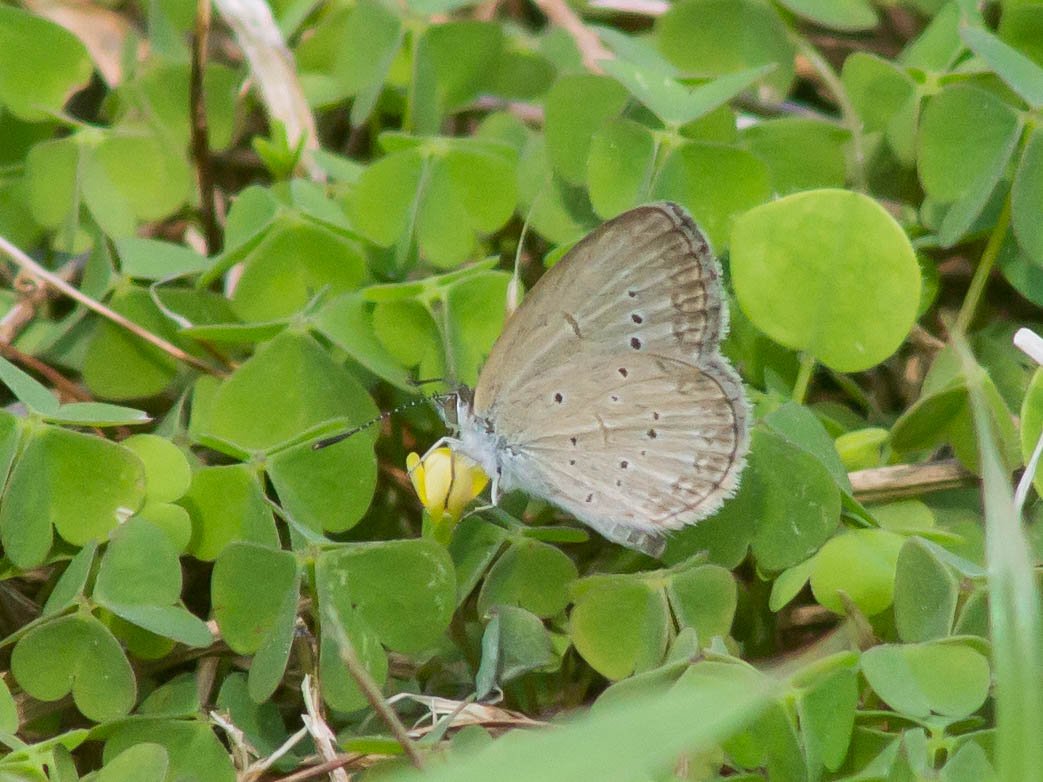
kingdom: Animalia
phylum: Arthropoda
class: Insecta
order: Lepidoptera
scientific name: Lepidoptera
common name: Butterflies
